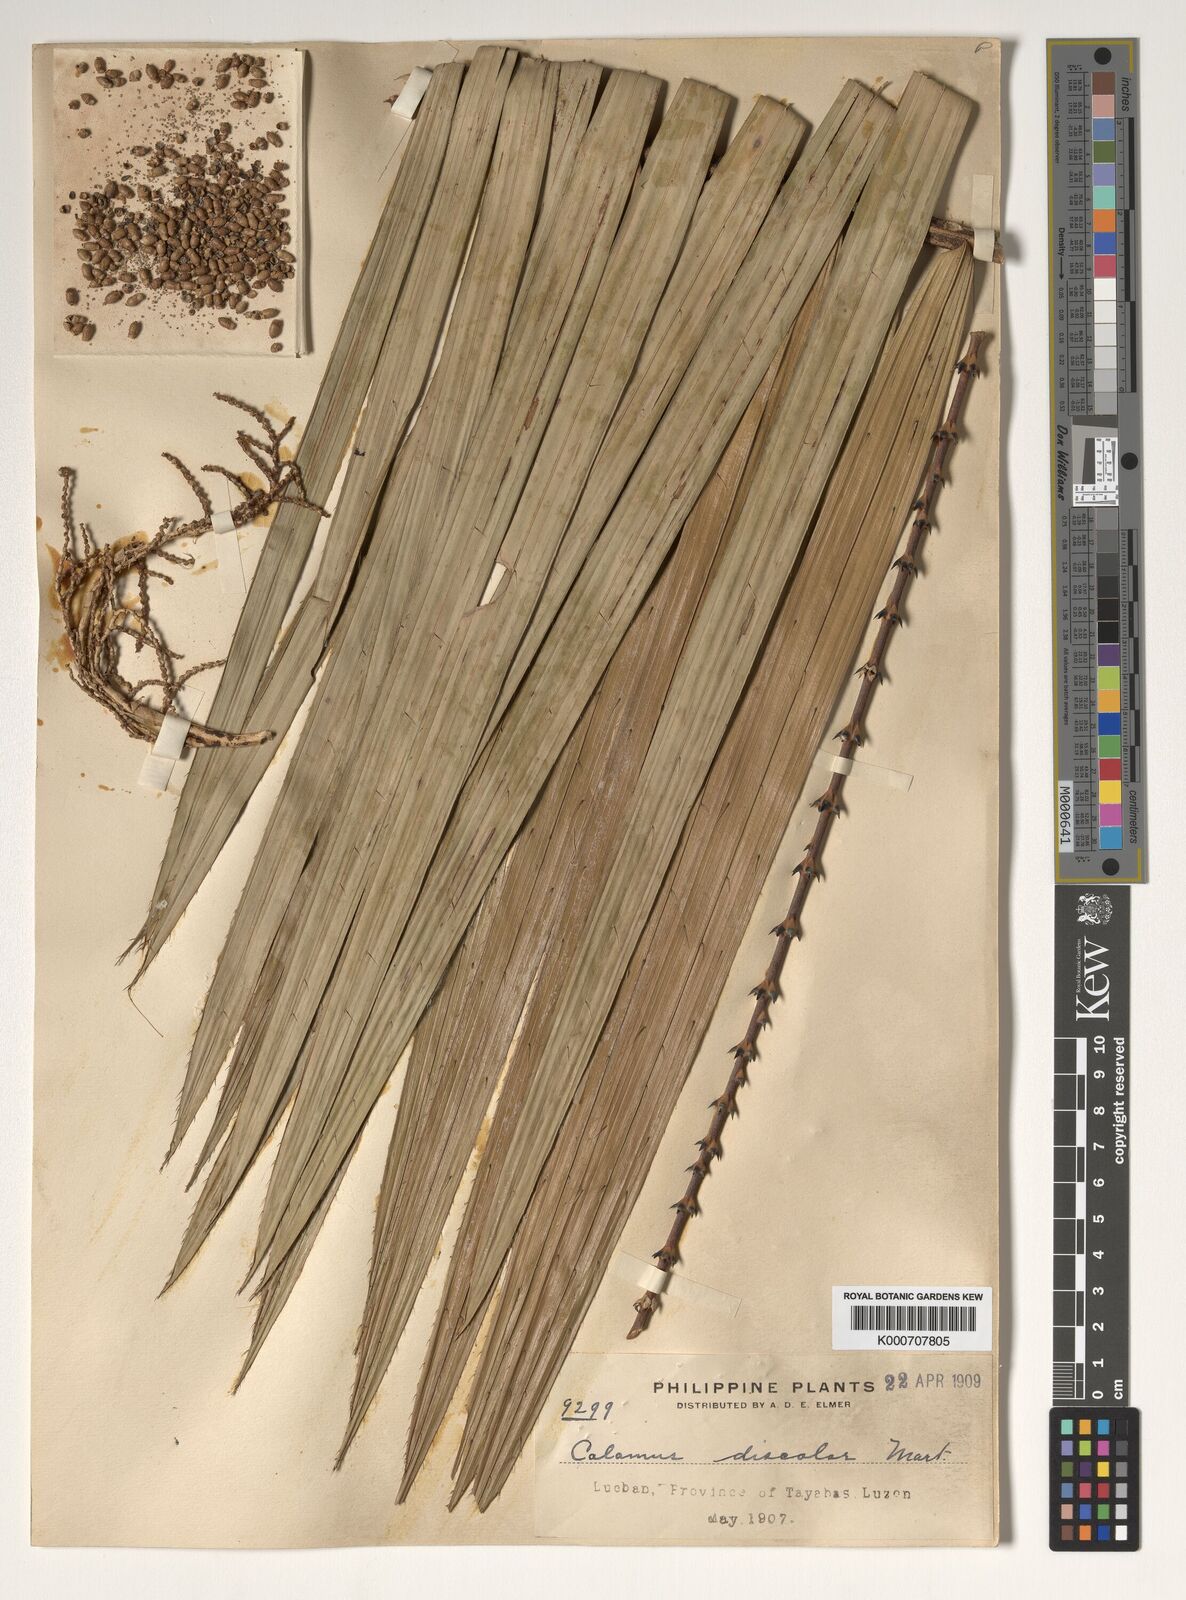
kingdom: Plantae
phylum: Tracheophyta
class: Liliopsida
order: Arecales
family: Arecaceae
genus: Calamus
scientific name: Calamus discolor
